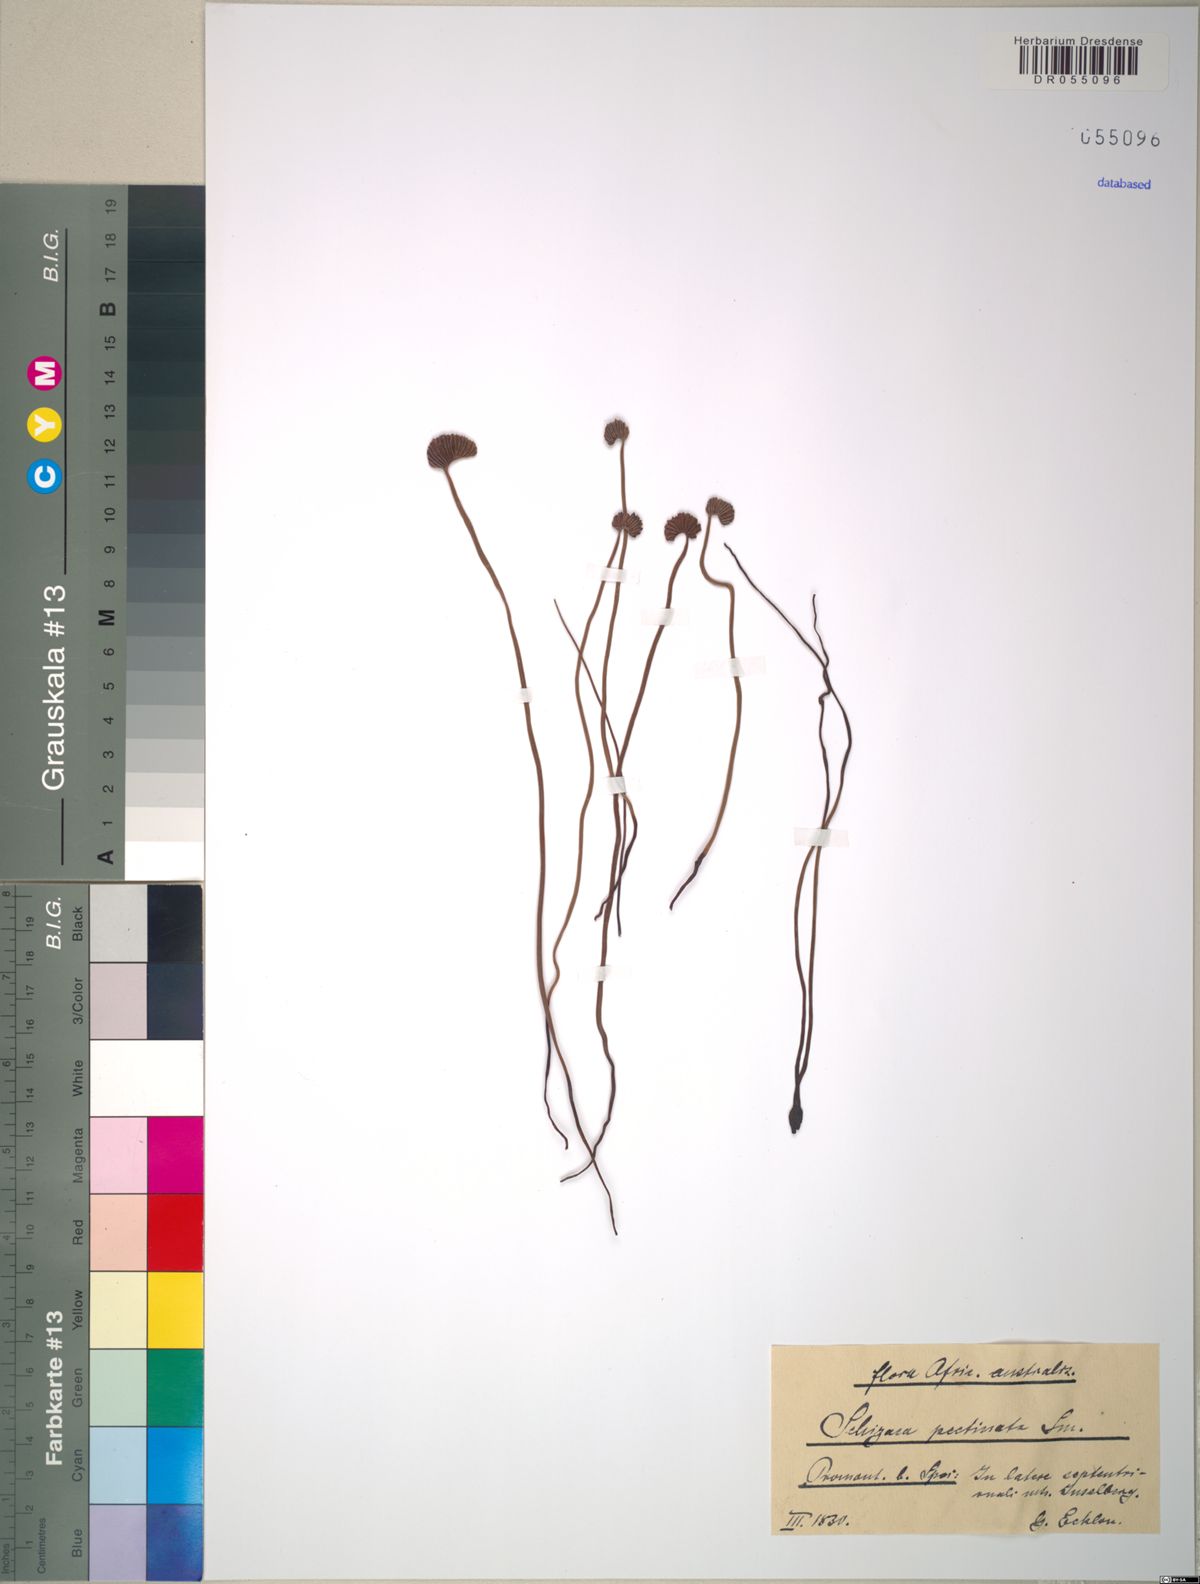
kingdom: Plantae
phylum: Tracheophyta
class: Polypodiopsida
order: Schizaeales
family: Schizaeaceae
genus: Schizaea
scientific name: Schizaea pectinata
